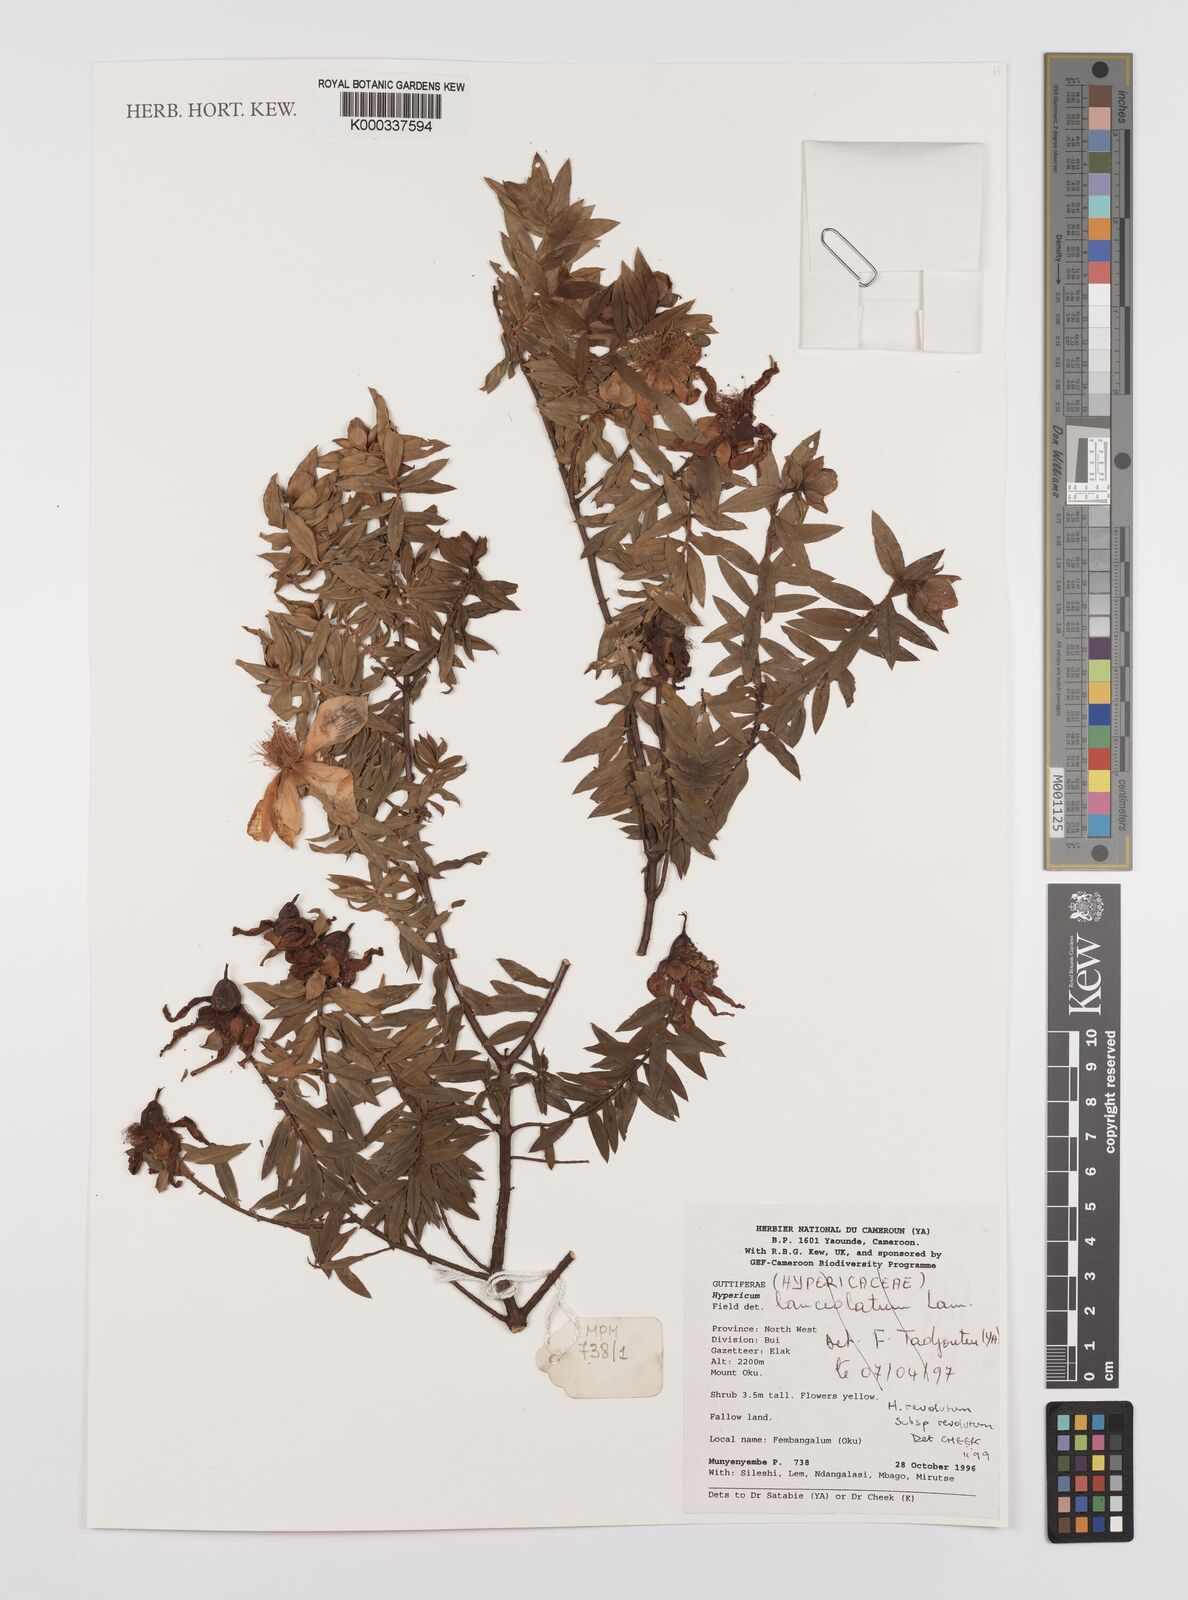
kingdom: Plantae
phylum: Tracheophyta
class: Magnoliopsida
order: Malpighiales
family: Hypericaceae
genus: Hypericum
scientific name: Hypericum revolutum
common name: Curry bush
